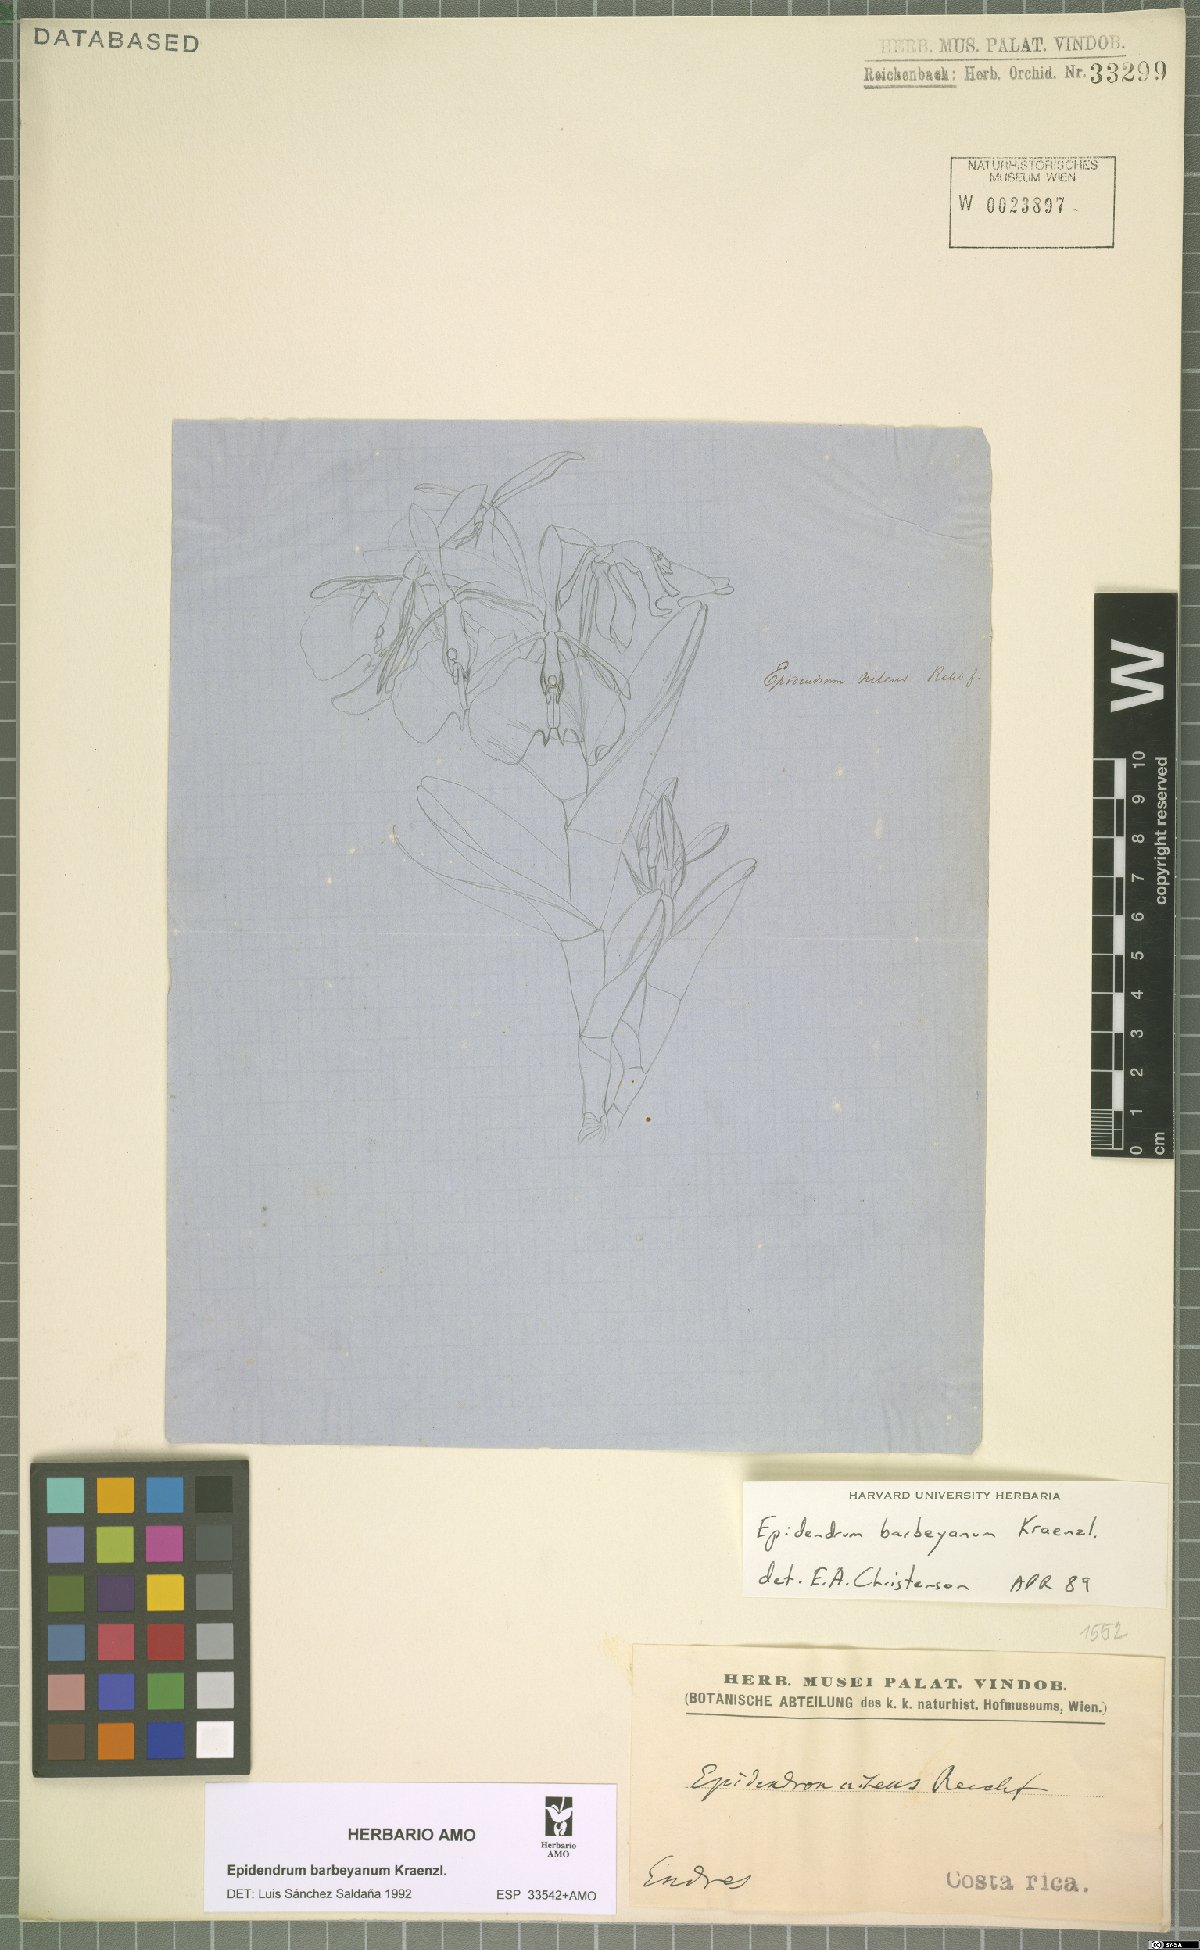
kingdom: Plantae
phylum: Tracheophyta
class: Liliopsida
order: Asparagales
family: Orchidaceae
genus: Epidendrum
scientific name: Epidendrum barbeyanum
